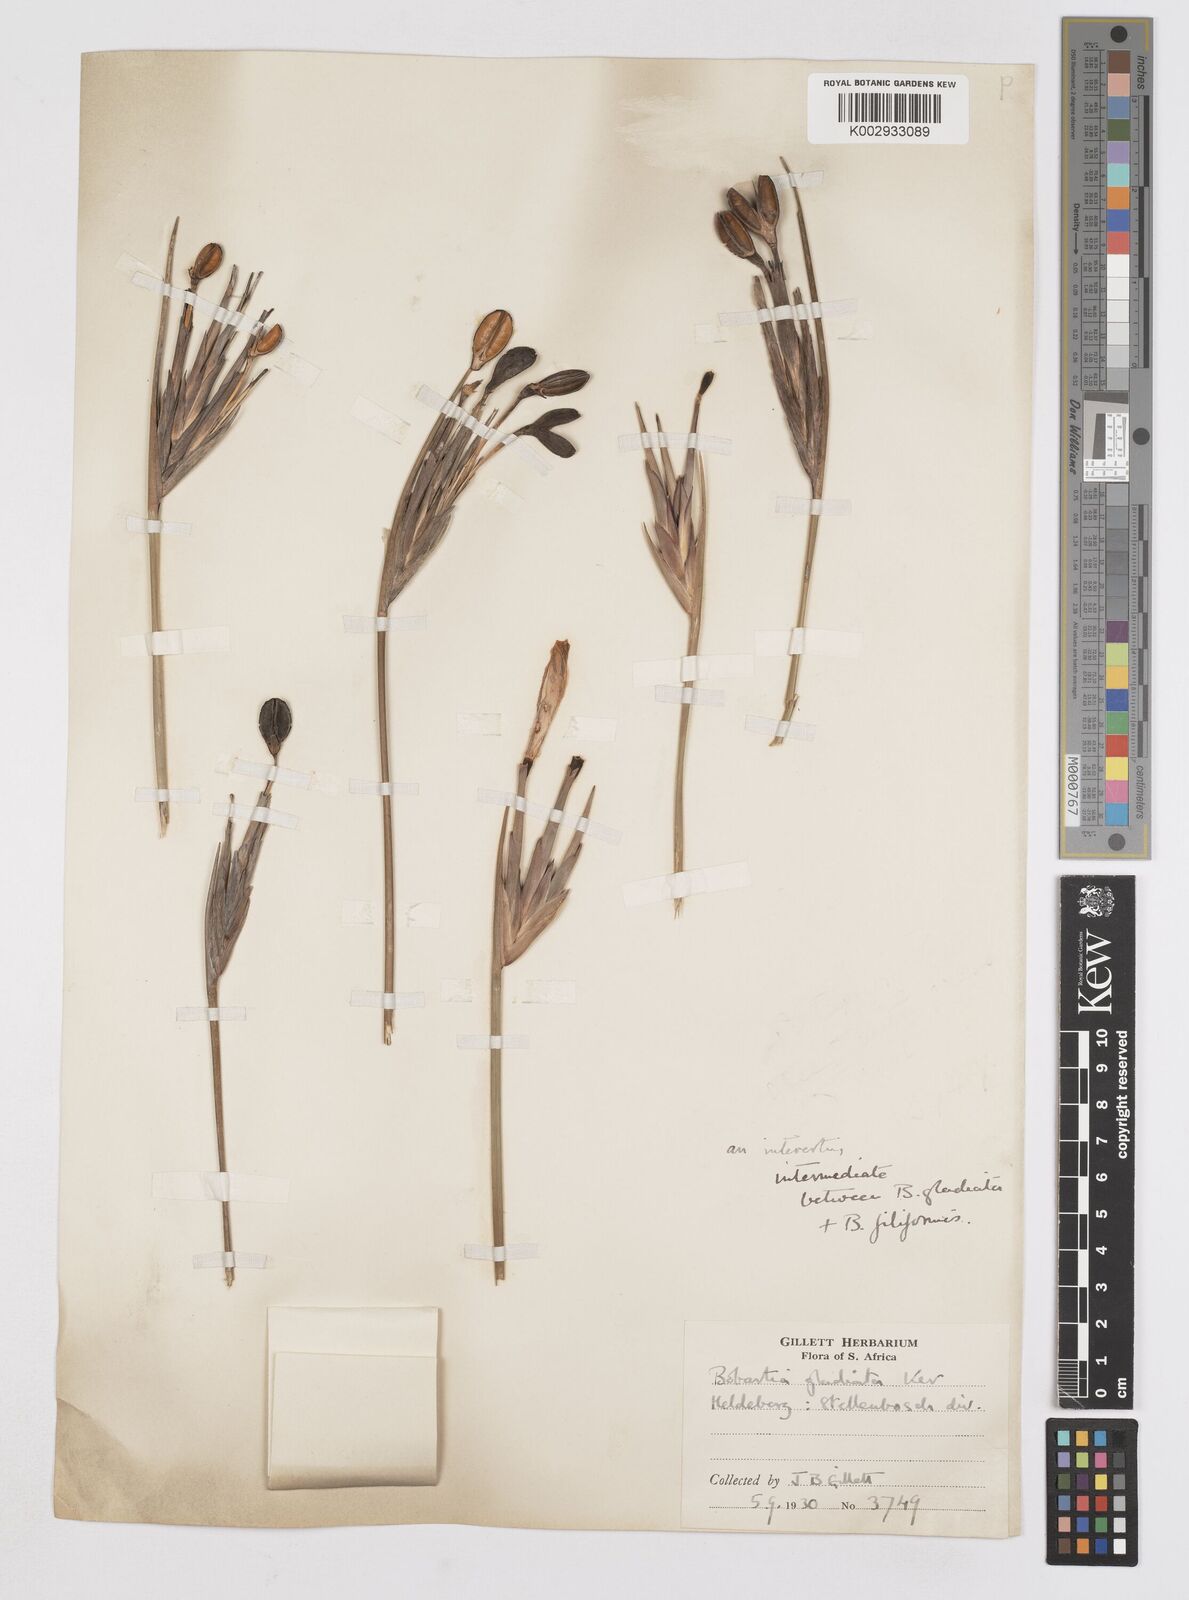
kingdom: Plantae
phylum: Tracheophyta
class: Liliopsida
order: Asparagales
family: Iridaceae
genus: Bobartia
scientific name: Bobartia gladiata
